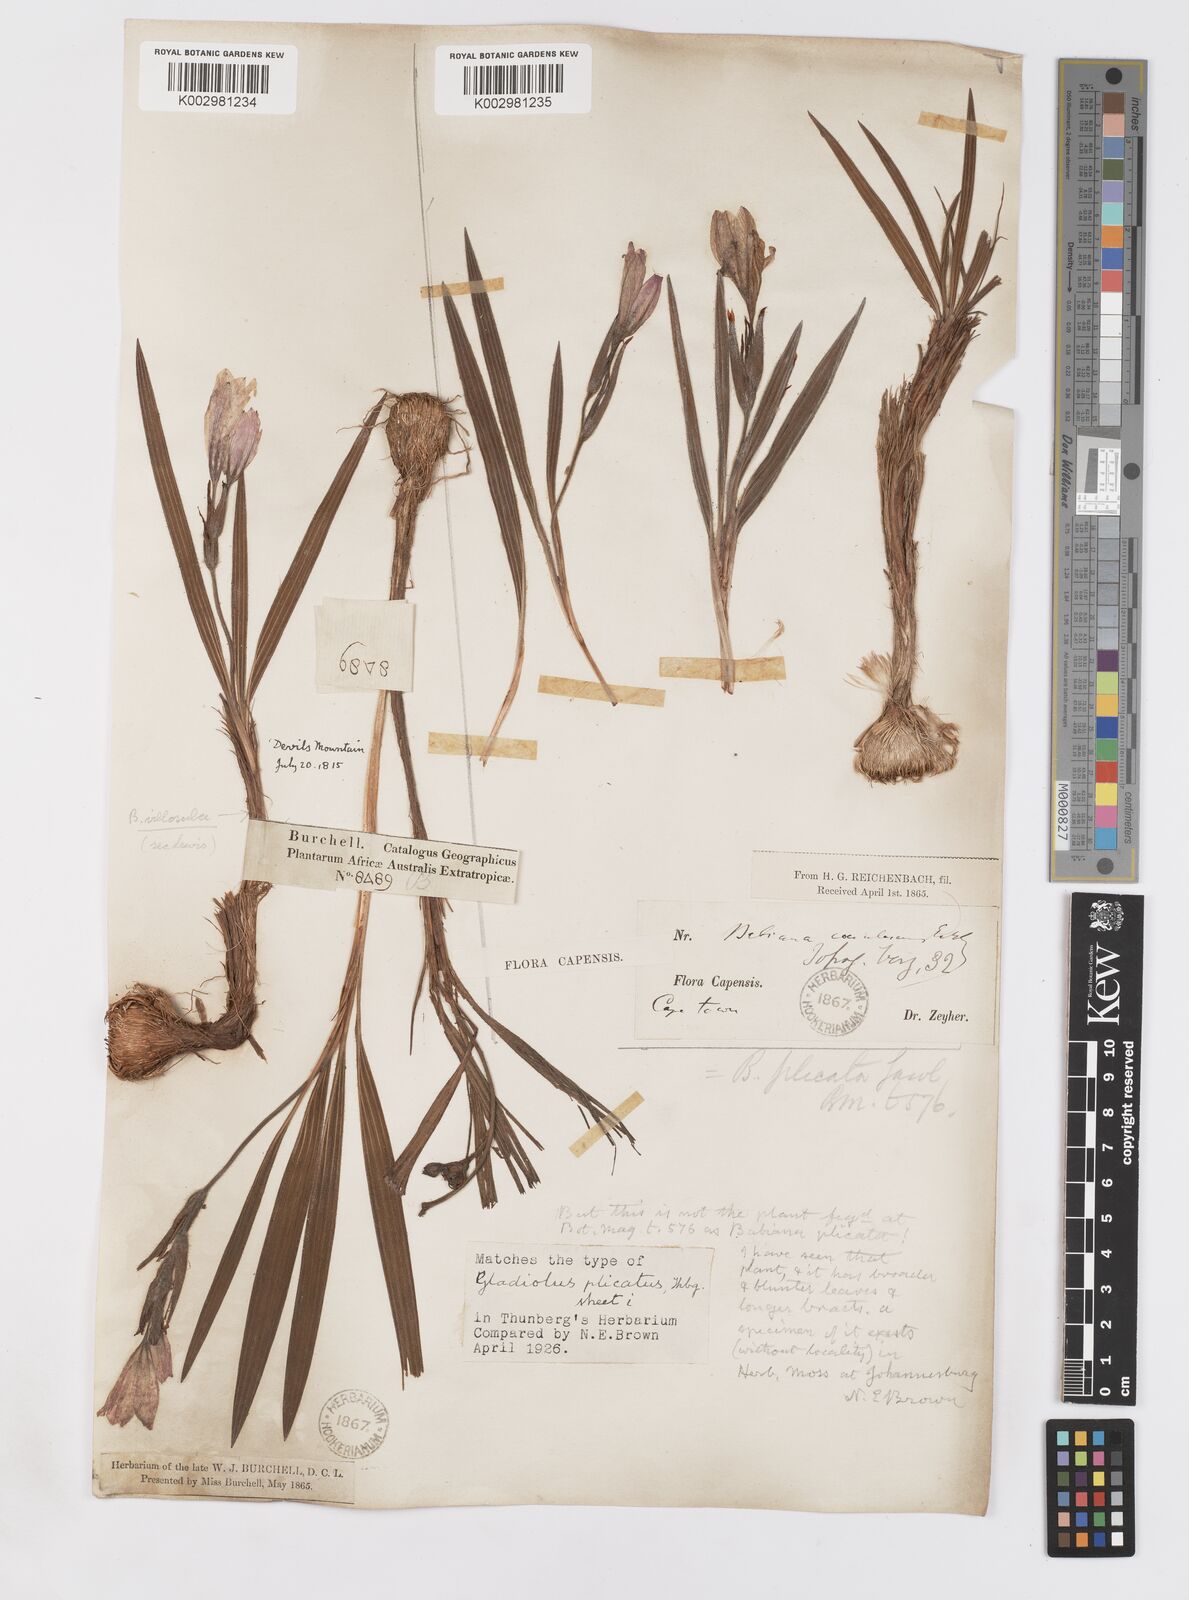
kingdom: Plantae
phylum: Tracheophyta
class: Liliopsida
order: Asparagales
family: Iridaceae
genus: Babiana
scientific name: Babiana villosula
